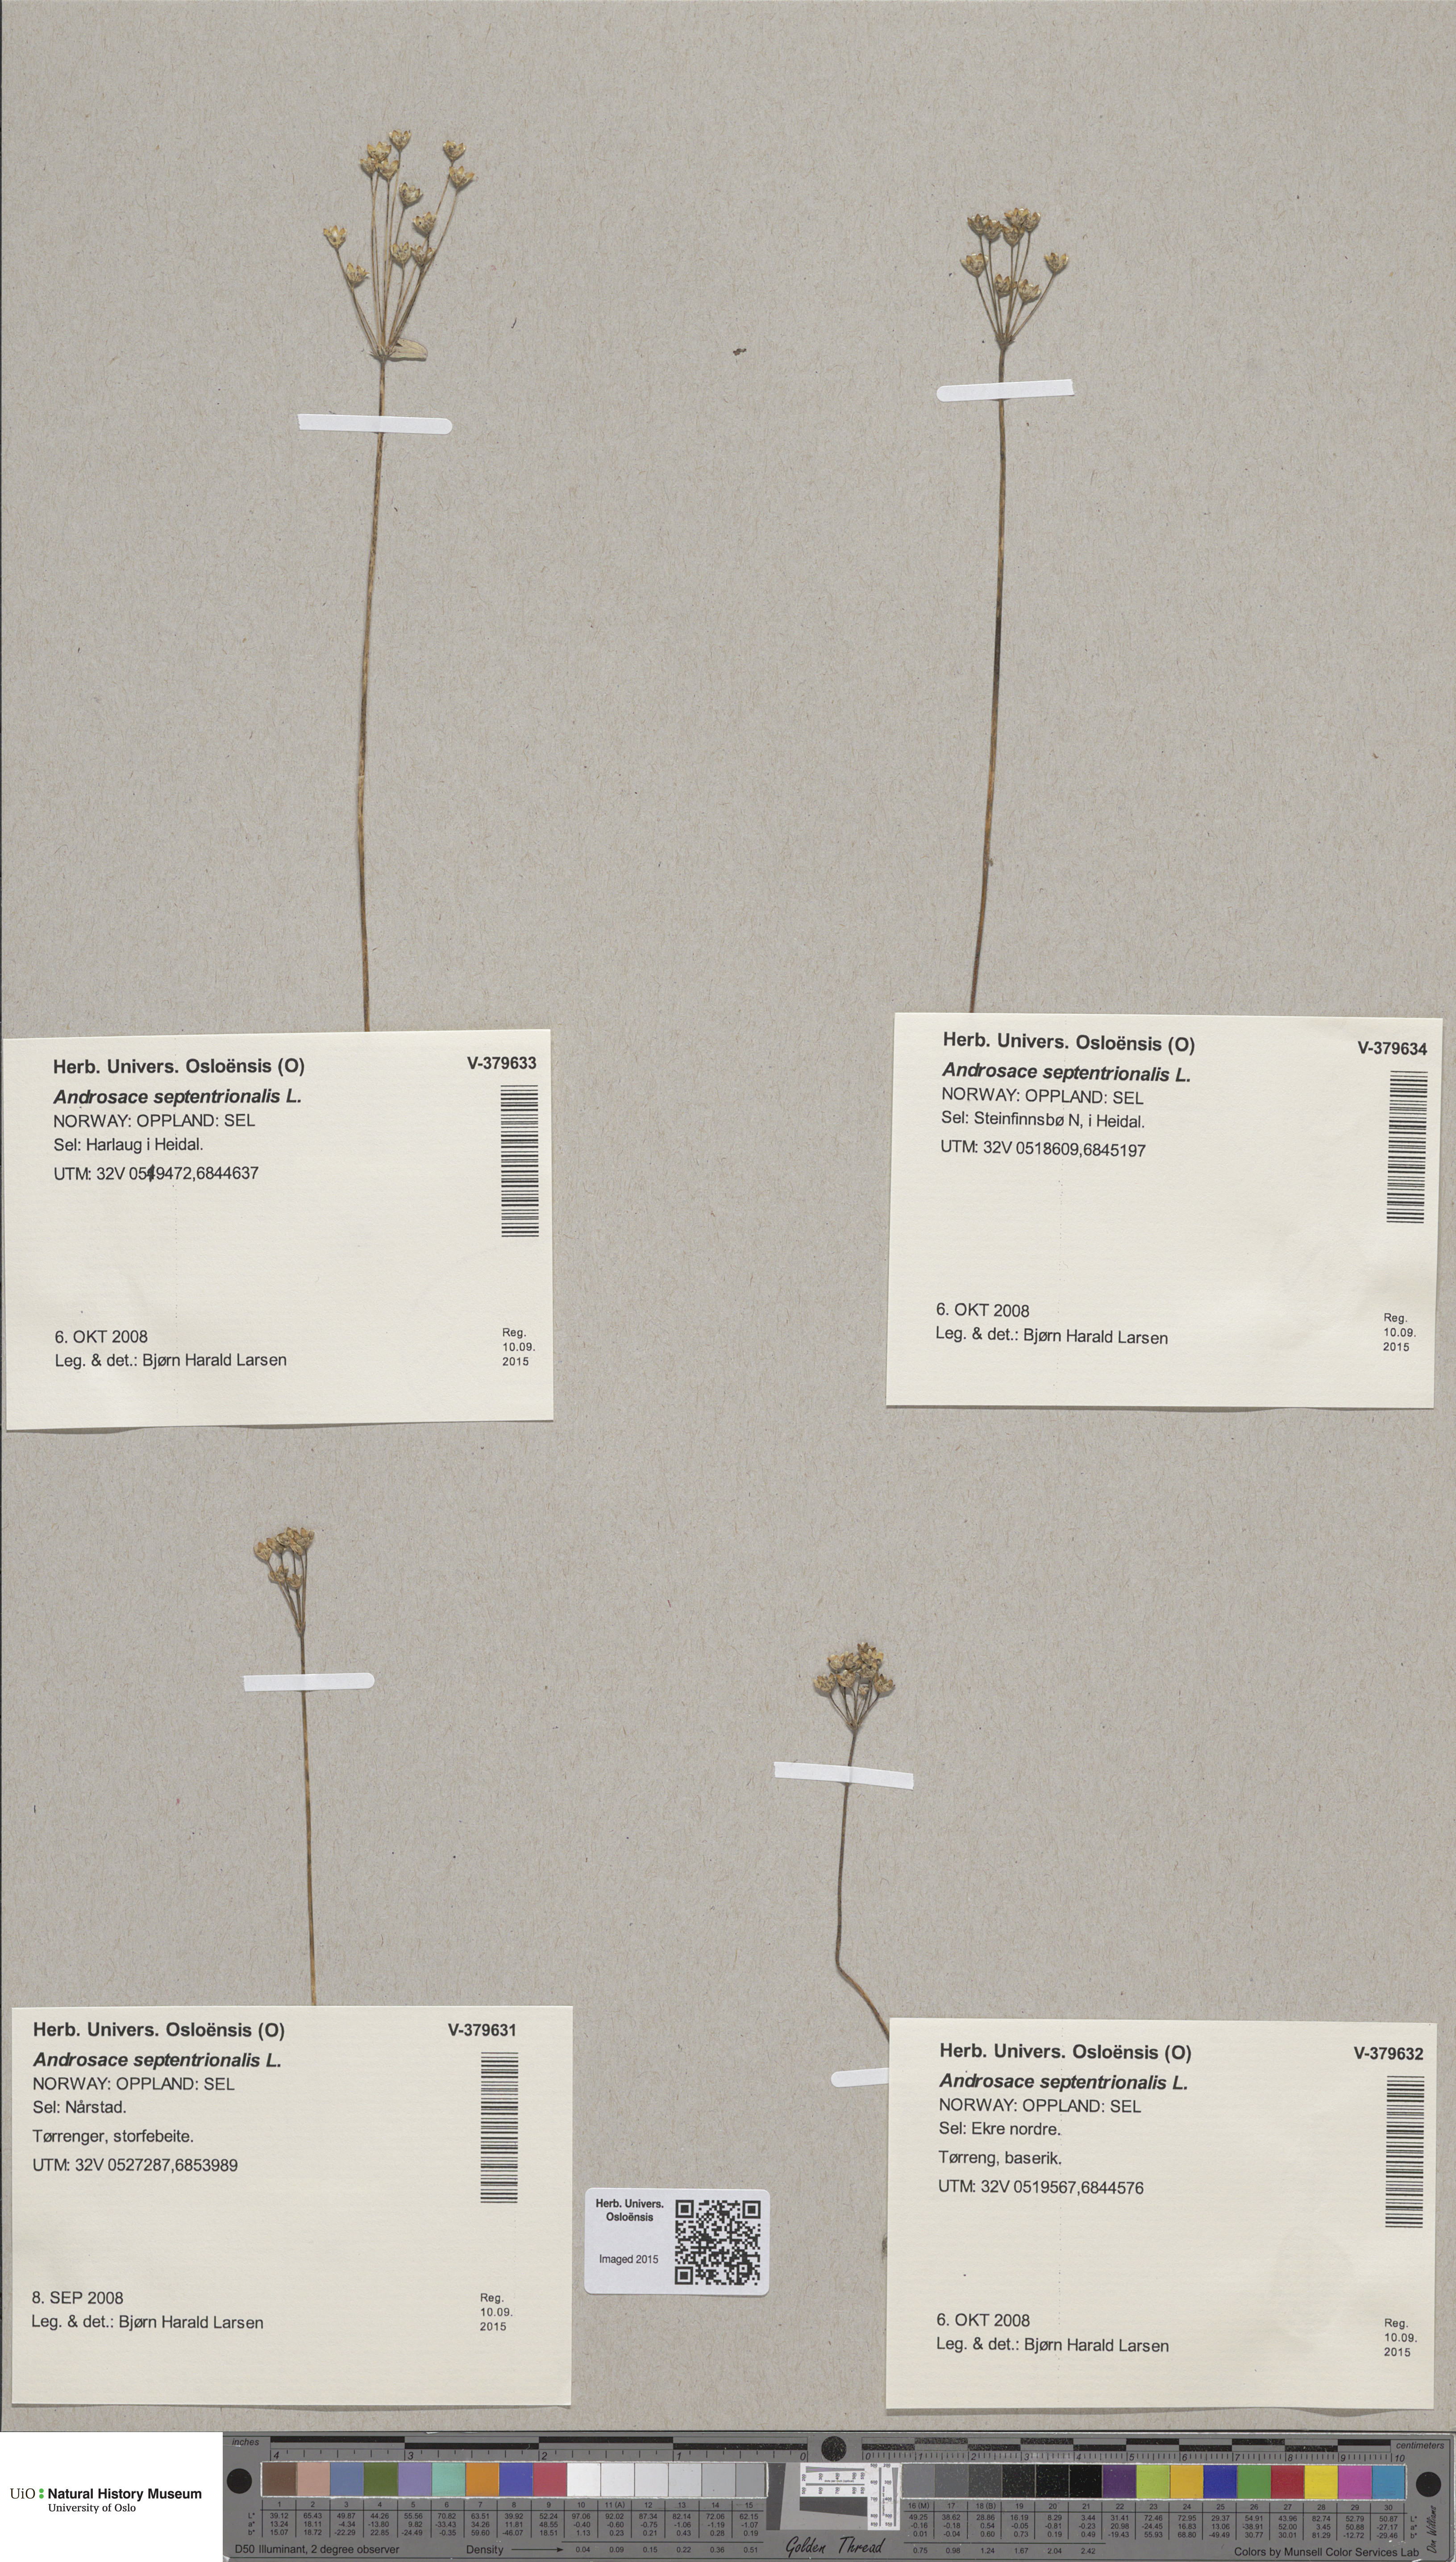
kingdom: Plantae
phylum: Tracheophyta
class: Magnoliopsida
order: Ericales
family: Primulaceae
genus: Androsace
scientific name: Androsace septentrionalis
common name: Hairy northern fairy-candelabra
